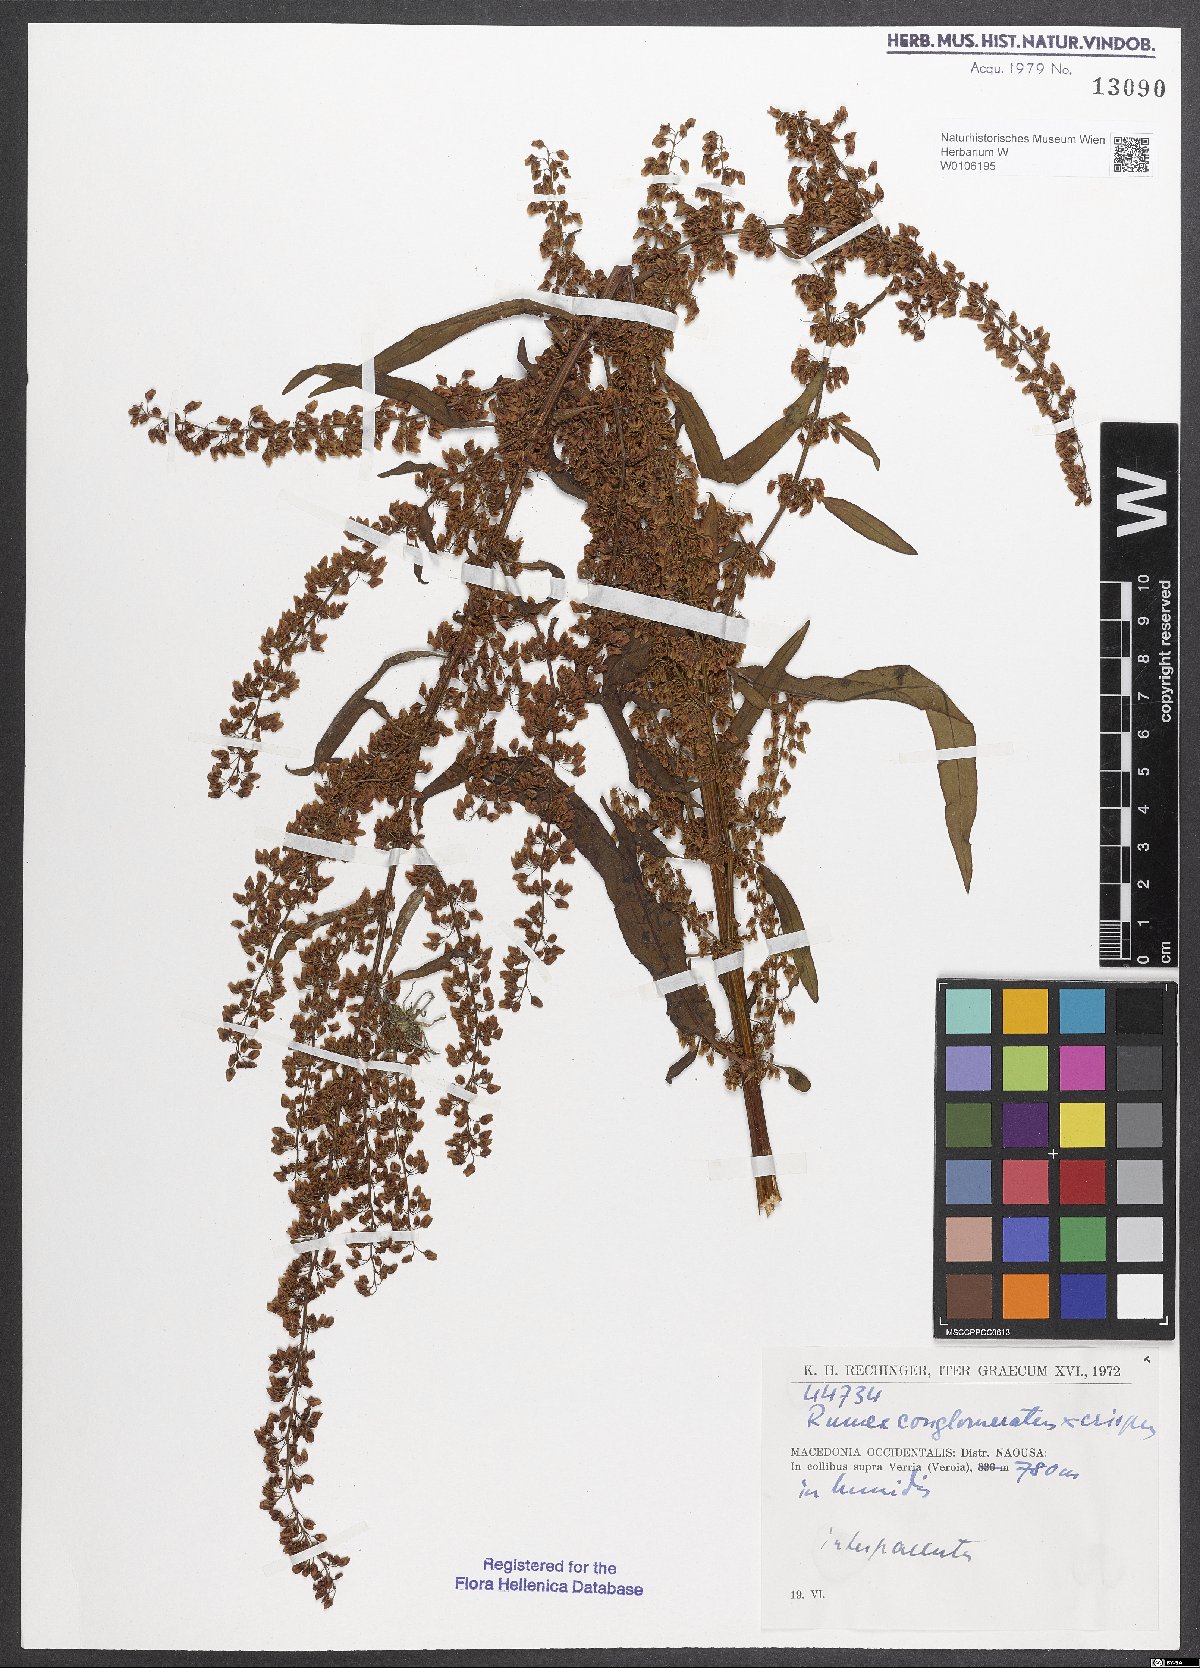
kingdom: Plantae
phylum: Tracheophyta
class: Magnoliopsida
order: Caryophyllales
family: Polygonaceae
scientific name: Polygonaceae
